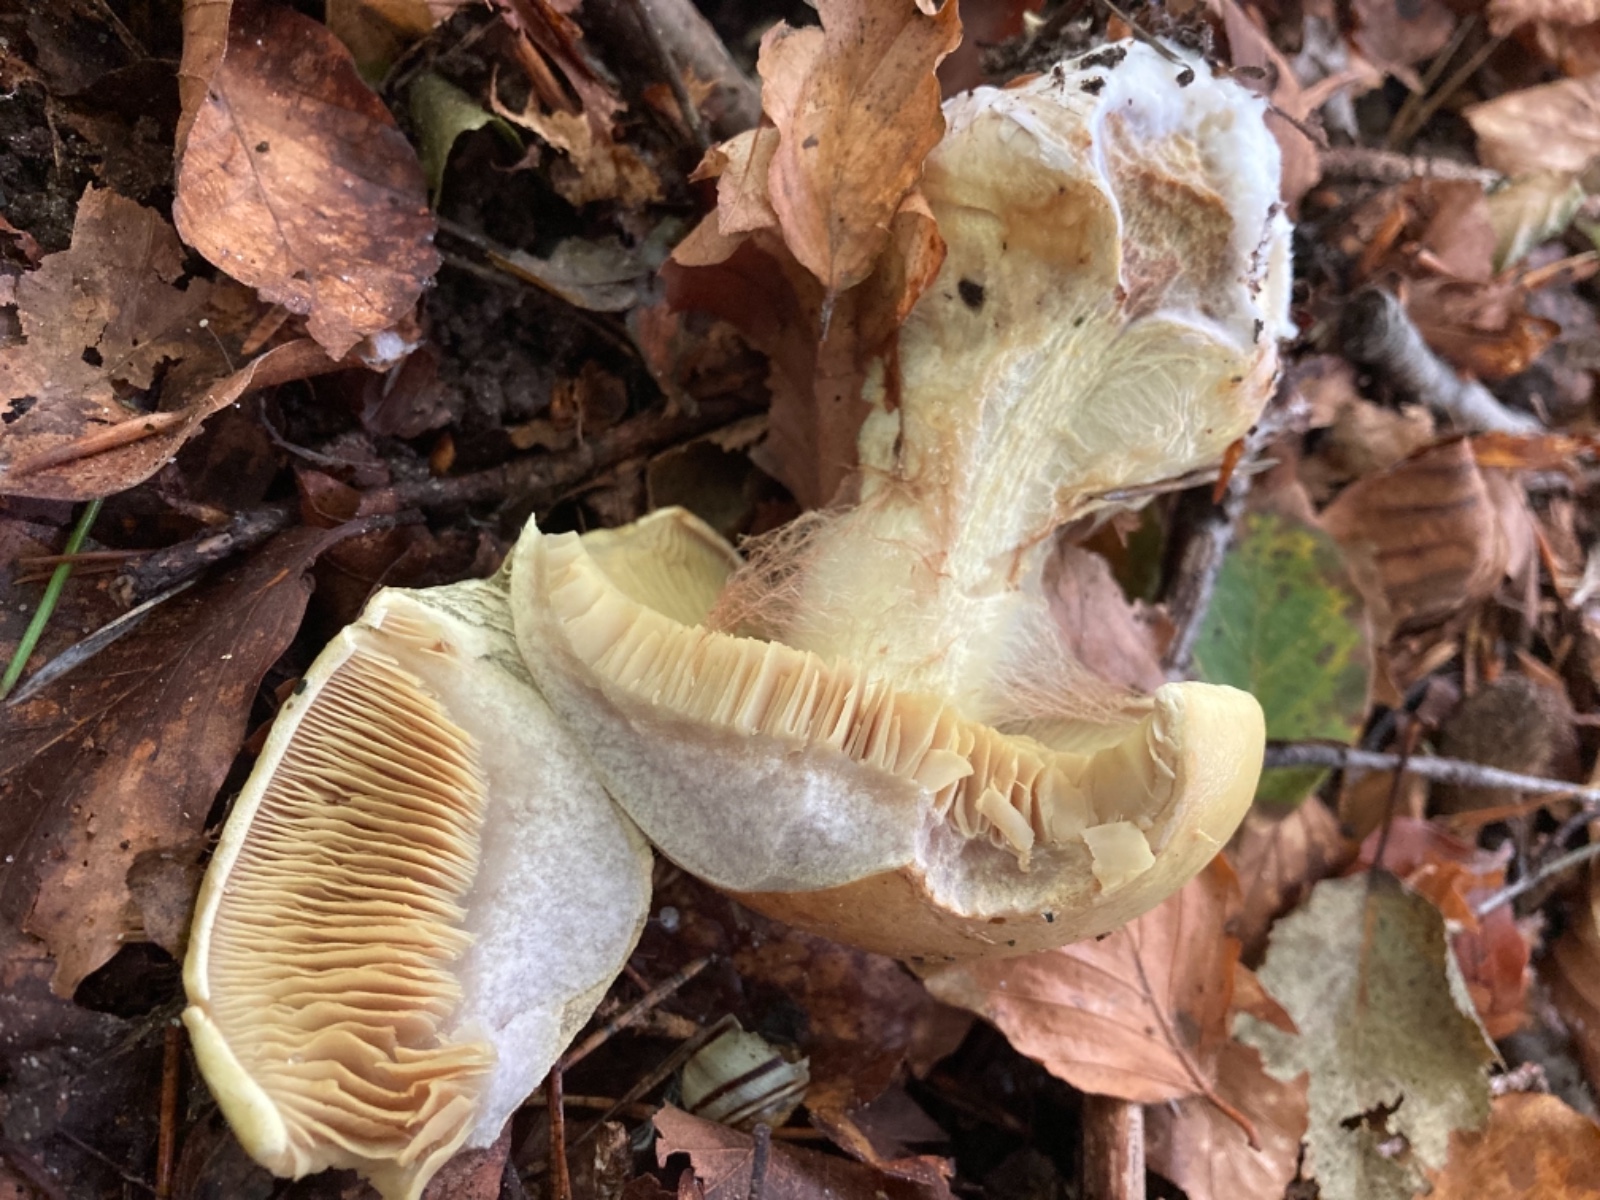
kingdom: Fungi
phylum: Basidiomycota
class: Agaricomycetes
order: Agaricales
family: Cortinariaceae
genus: Calonarius
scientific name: Calonarius elegantissimus
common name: orangegylden slørhat
